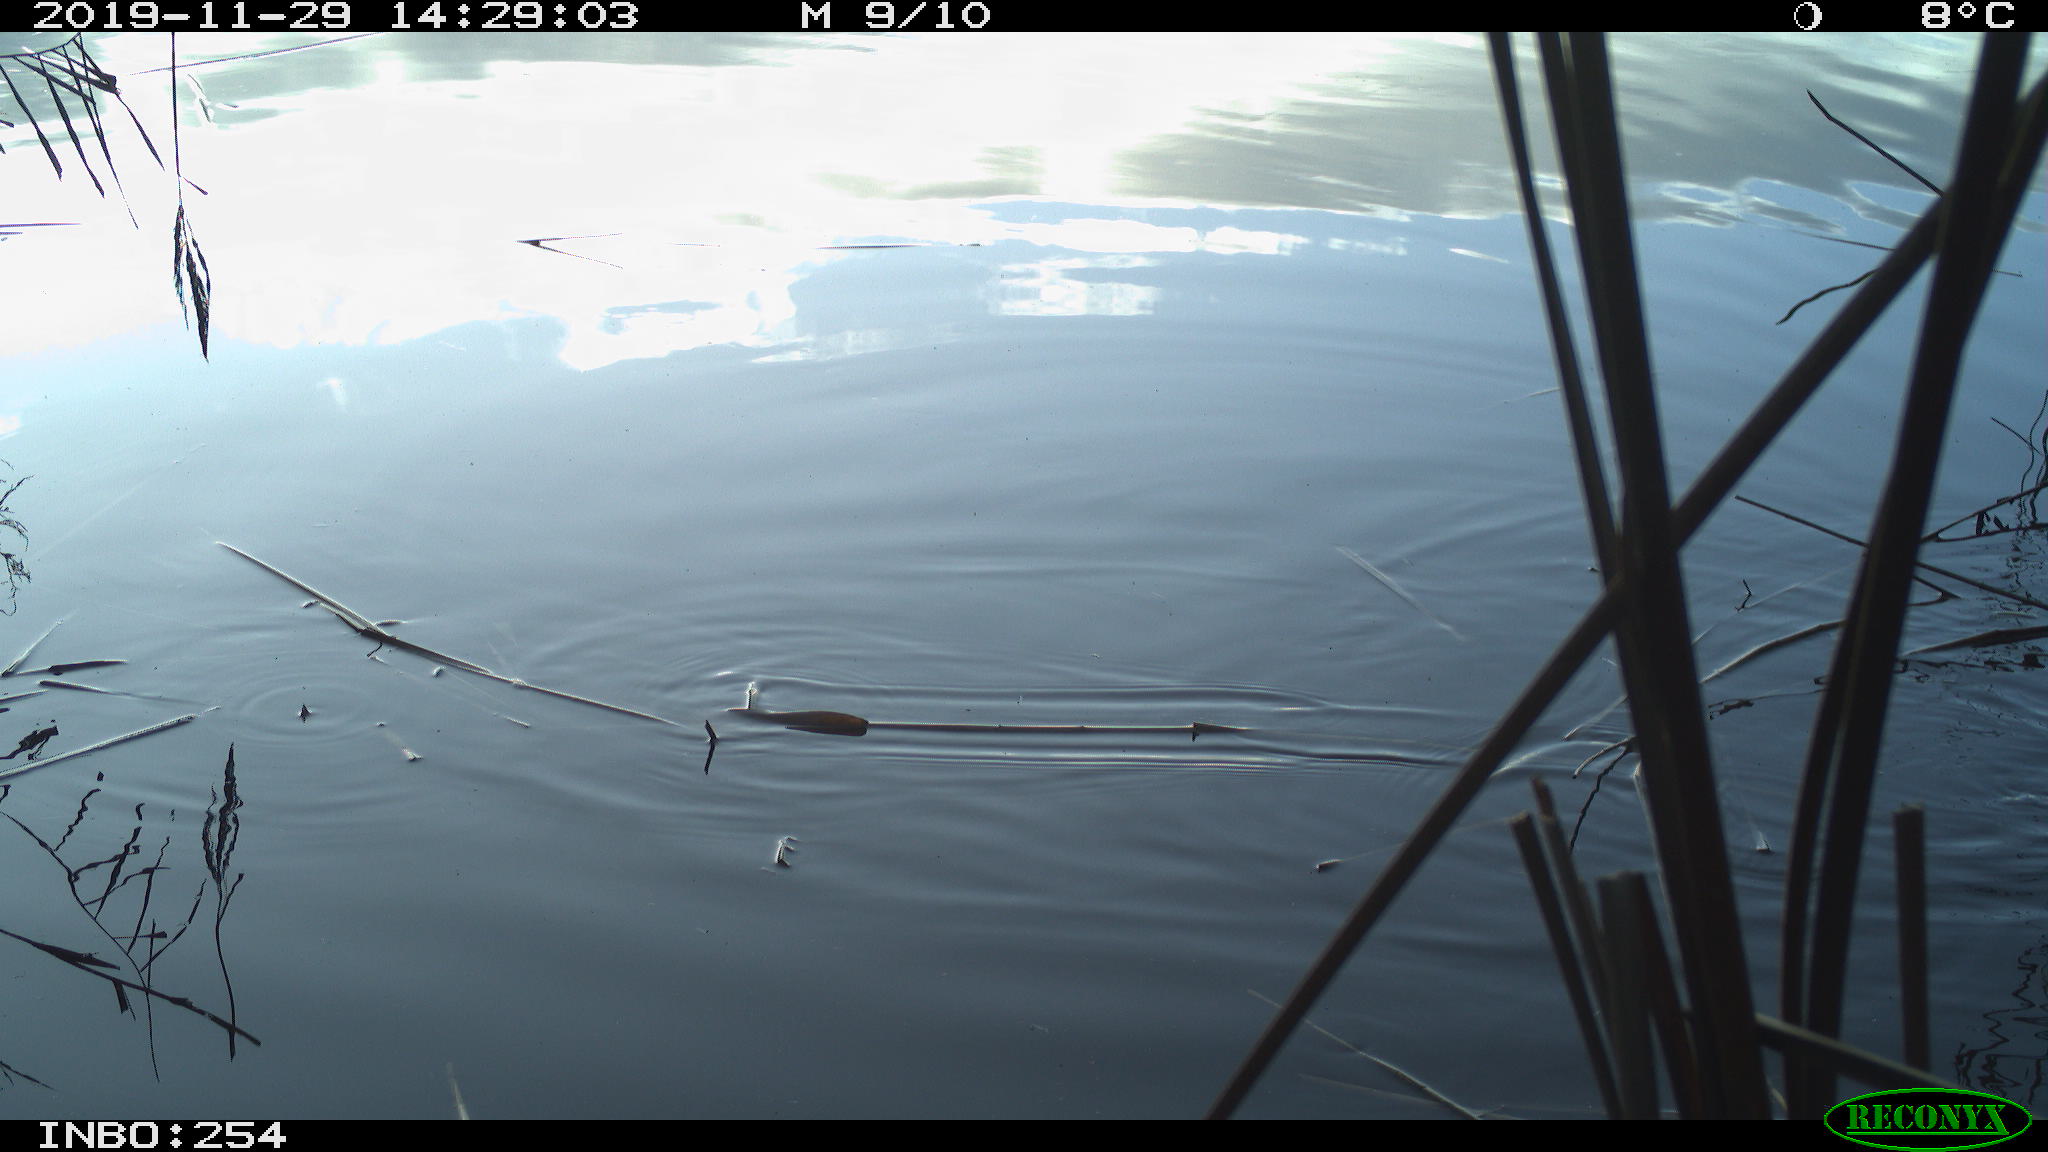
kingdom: Animalia
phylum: Chordata
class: Aves
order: Gruiformes
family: Rallidae
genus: Gallinula
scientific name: Gallinula chloropus
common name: Common moorhen
